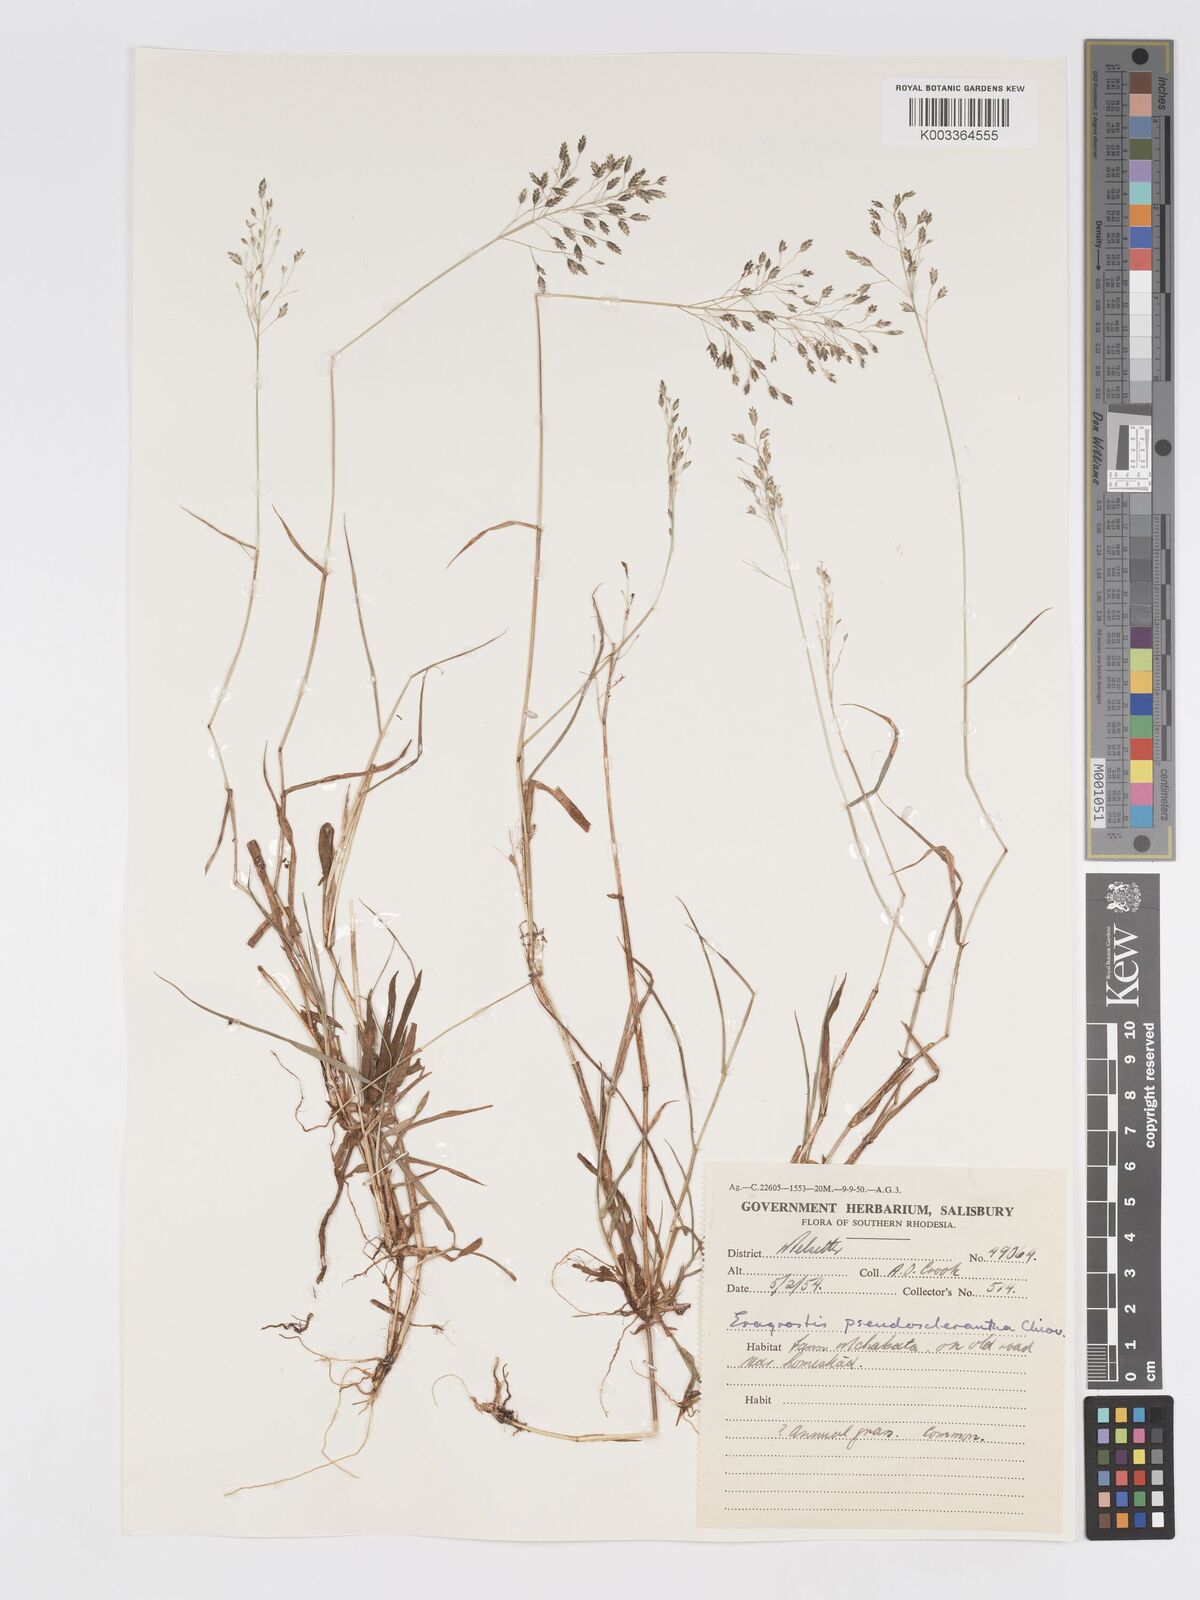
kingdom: Plantae
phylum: Tracheophyta
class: Liliopsida
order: Poales
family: Poaceae
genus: Eragrostis
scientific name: Eragrostis patentipilosa
